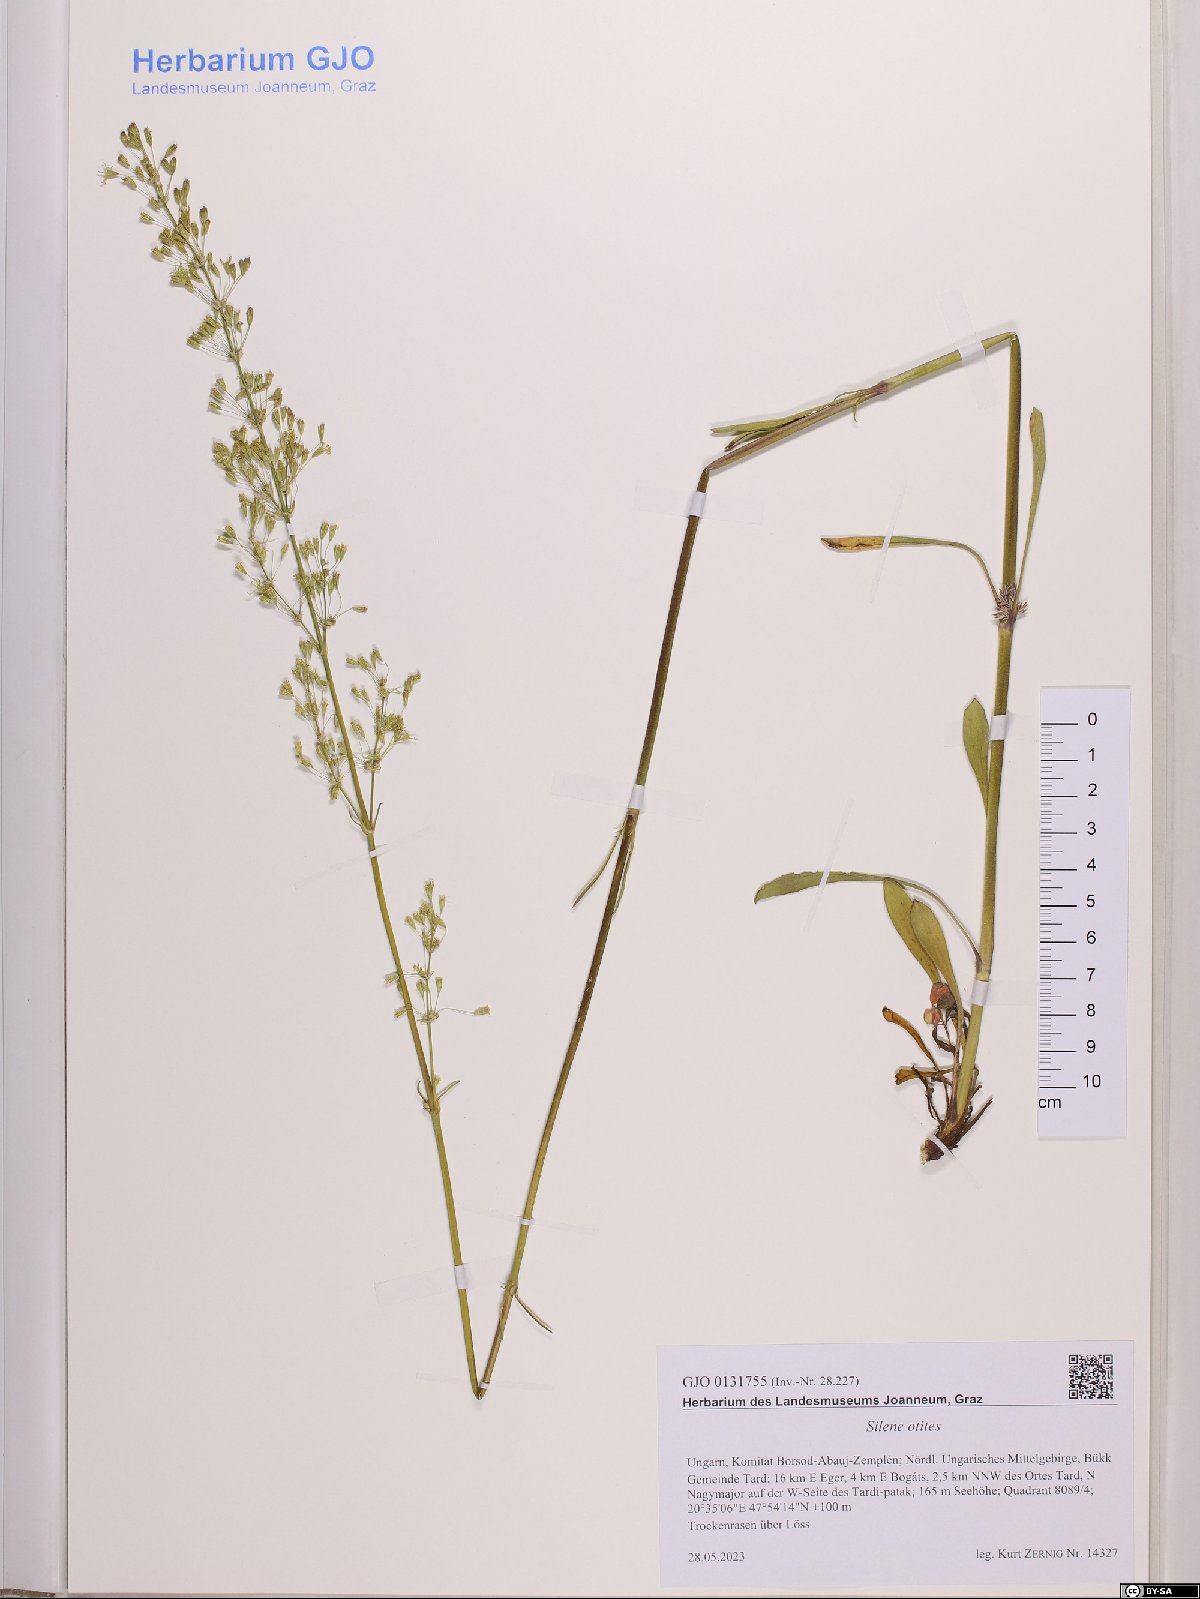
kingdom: Plantae
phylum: Tracheophyta
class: Magnoliopsida
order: Caryophyllales
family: Caryophyllaceae
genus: Silene
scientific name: Silene otites
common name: Spanish catchfly
